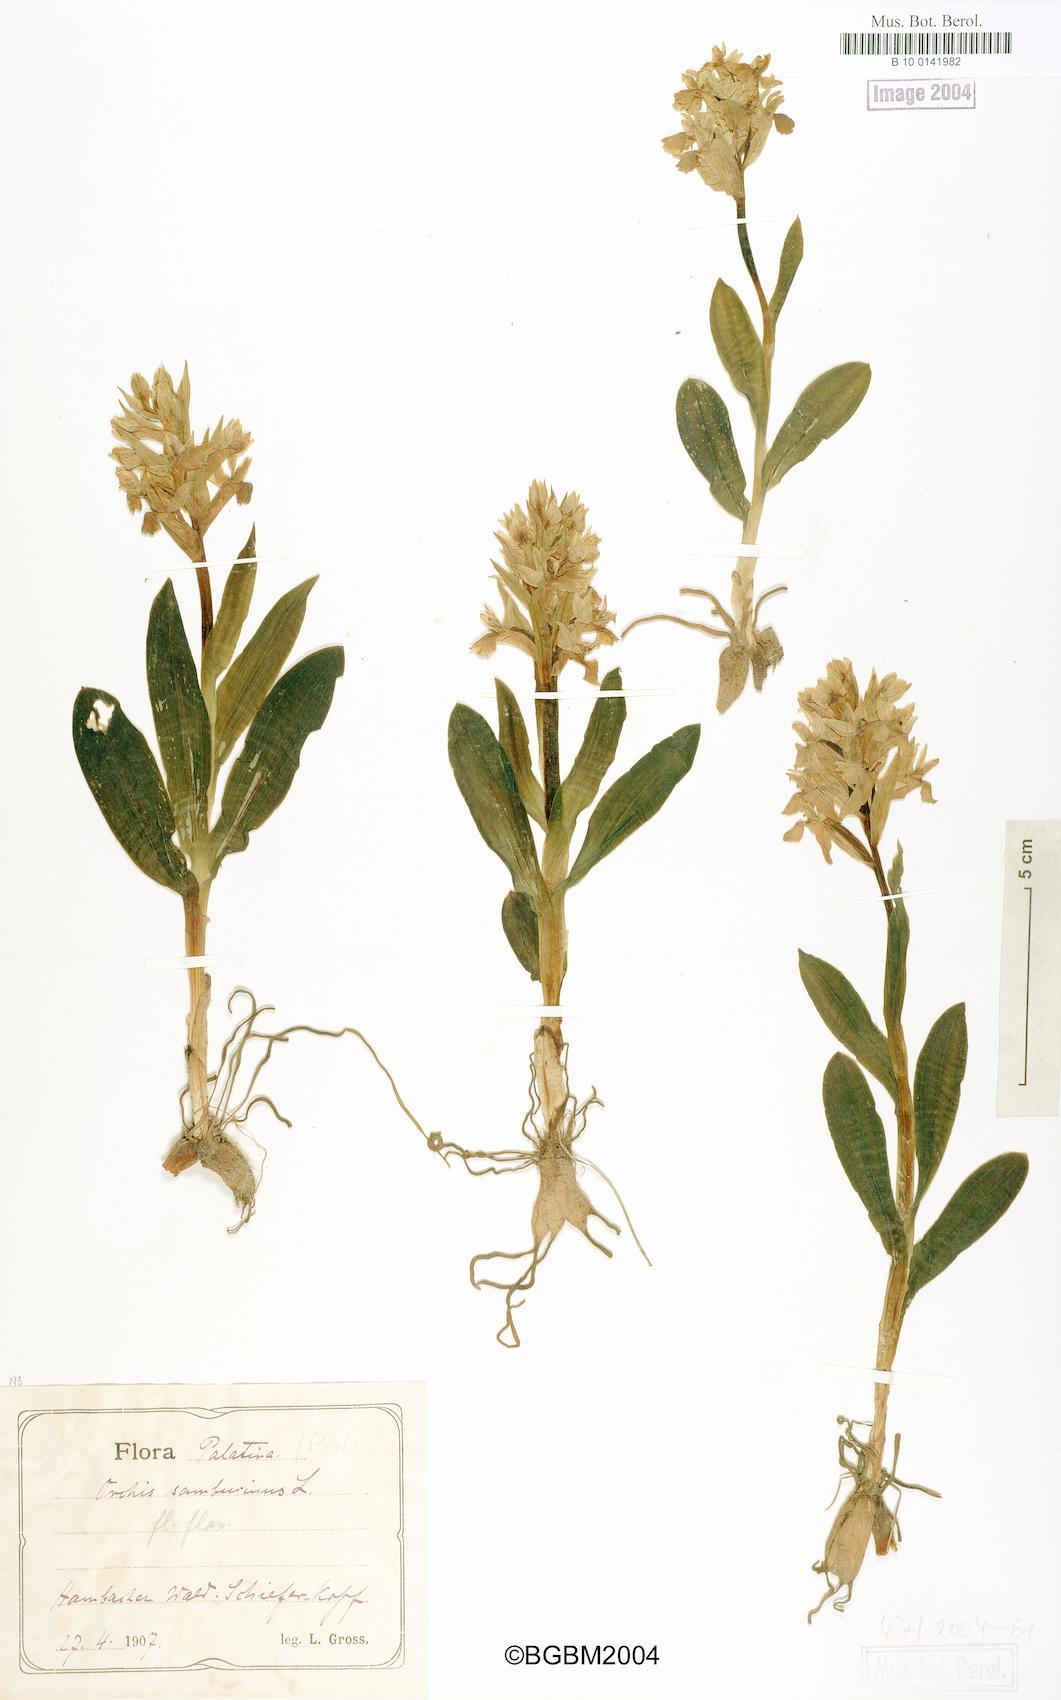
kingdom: Plantae
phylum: Tracheophyta
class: Liliopsida
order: Asparagales
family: Orchidaceae
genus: Dactylorhiza
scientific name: Dactylorhiza sambucina
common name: Elder-flowered orchid
